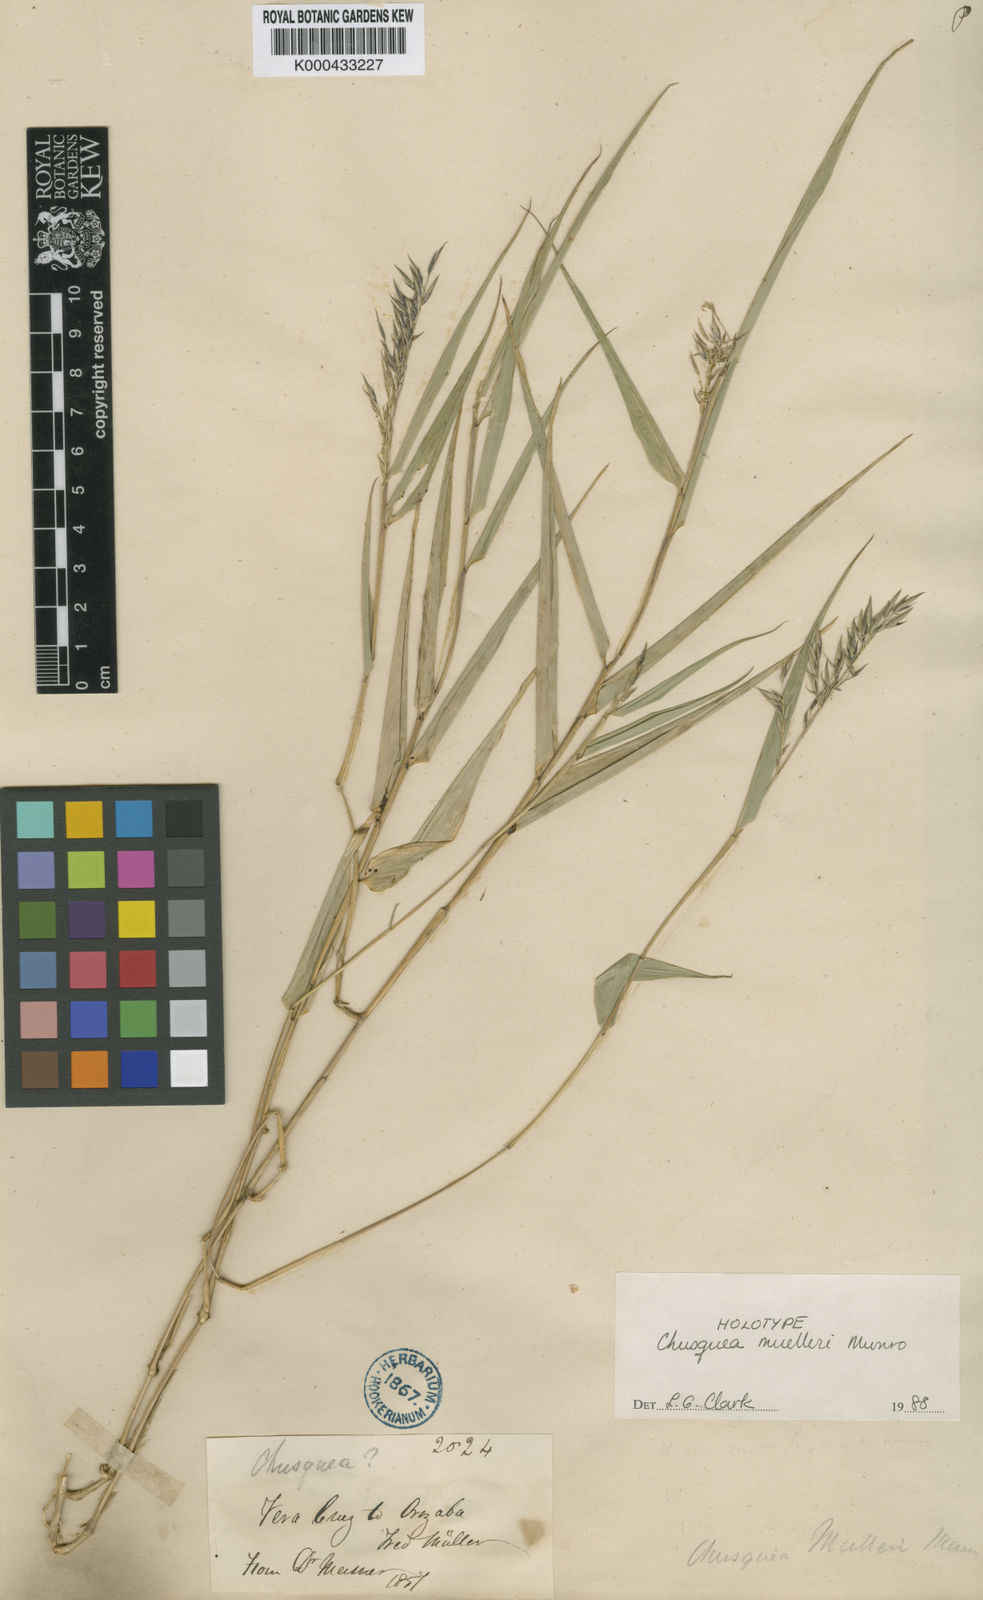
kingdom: Plantae
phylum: Tracheophyta
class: Liliopsida
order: Poales
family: Poaceae
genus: Chusquea
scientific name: Chusquea mulleri
